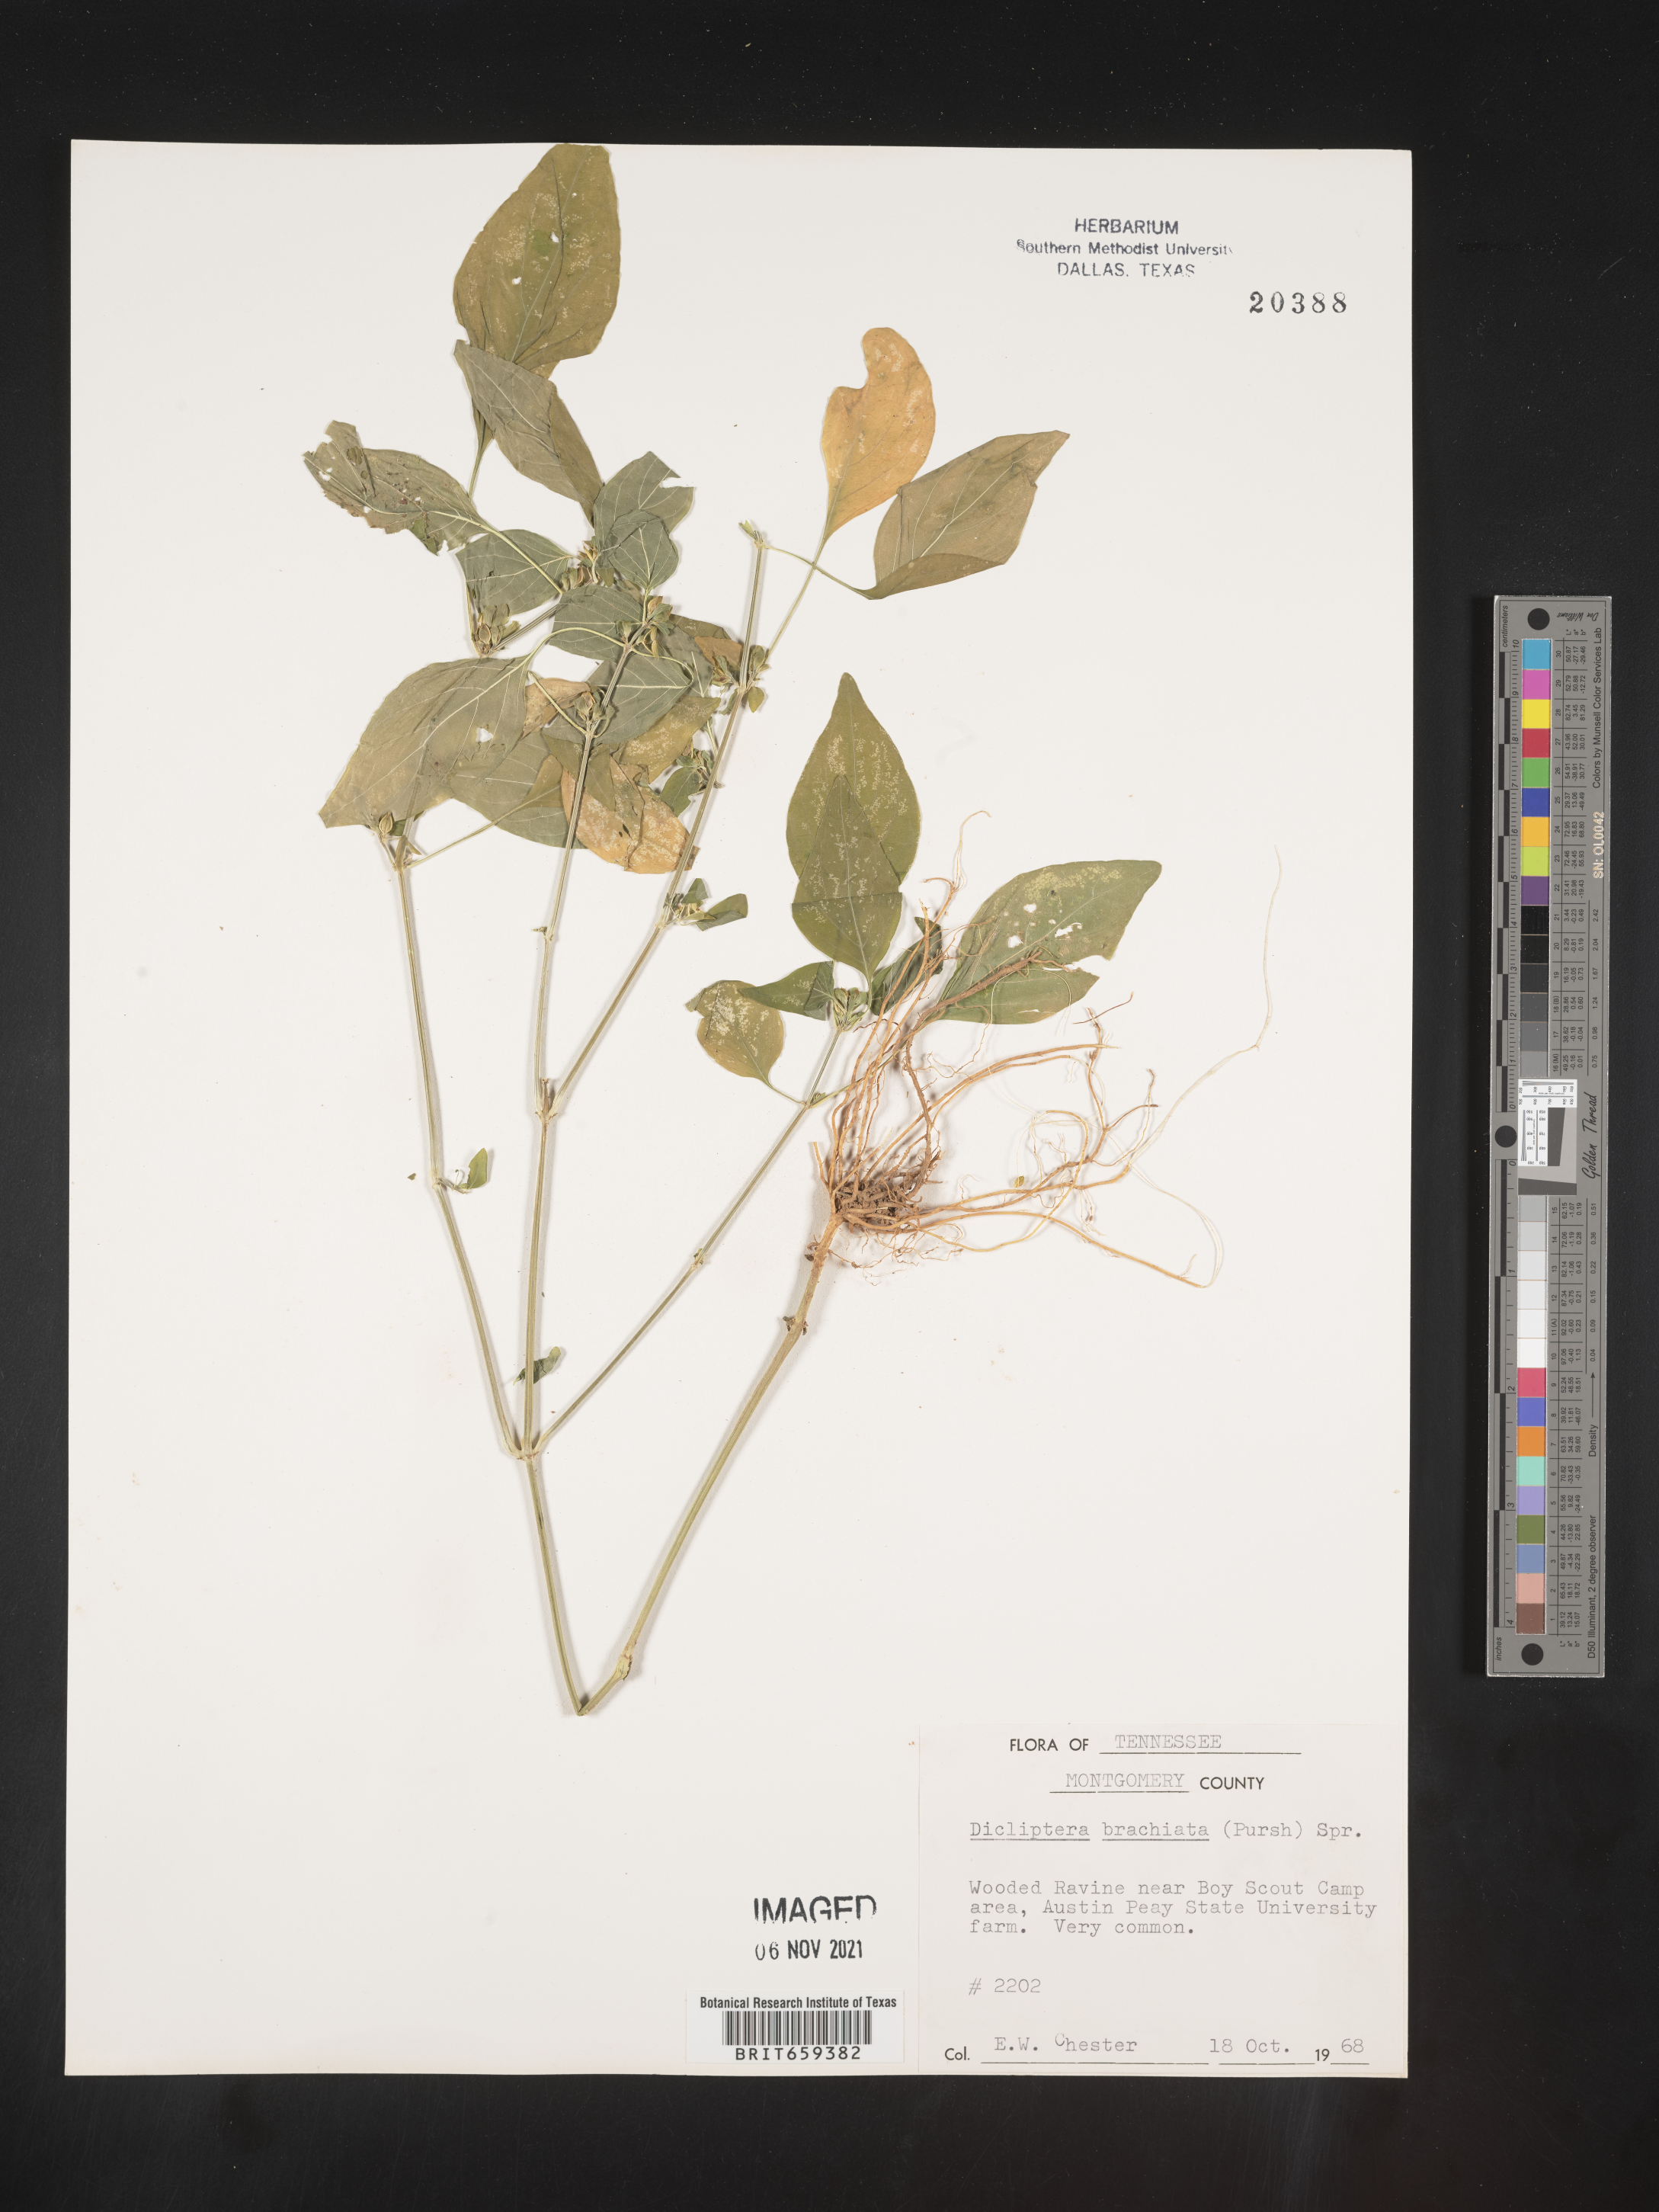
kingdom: Plantae
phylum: Tracheophyta
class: Magnoliopsida
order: Lamiales
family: Acanthaceae
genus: Dicliptera
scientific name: Dicliptera brachiata
